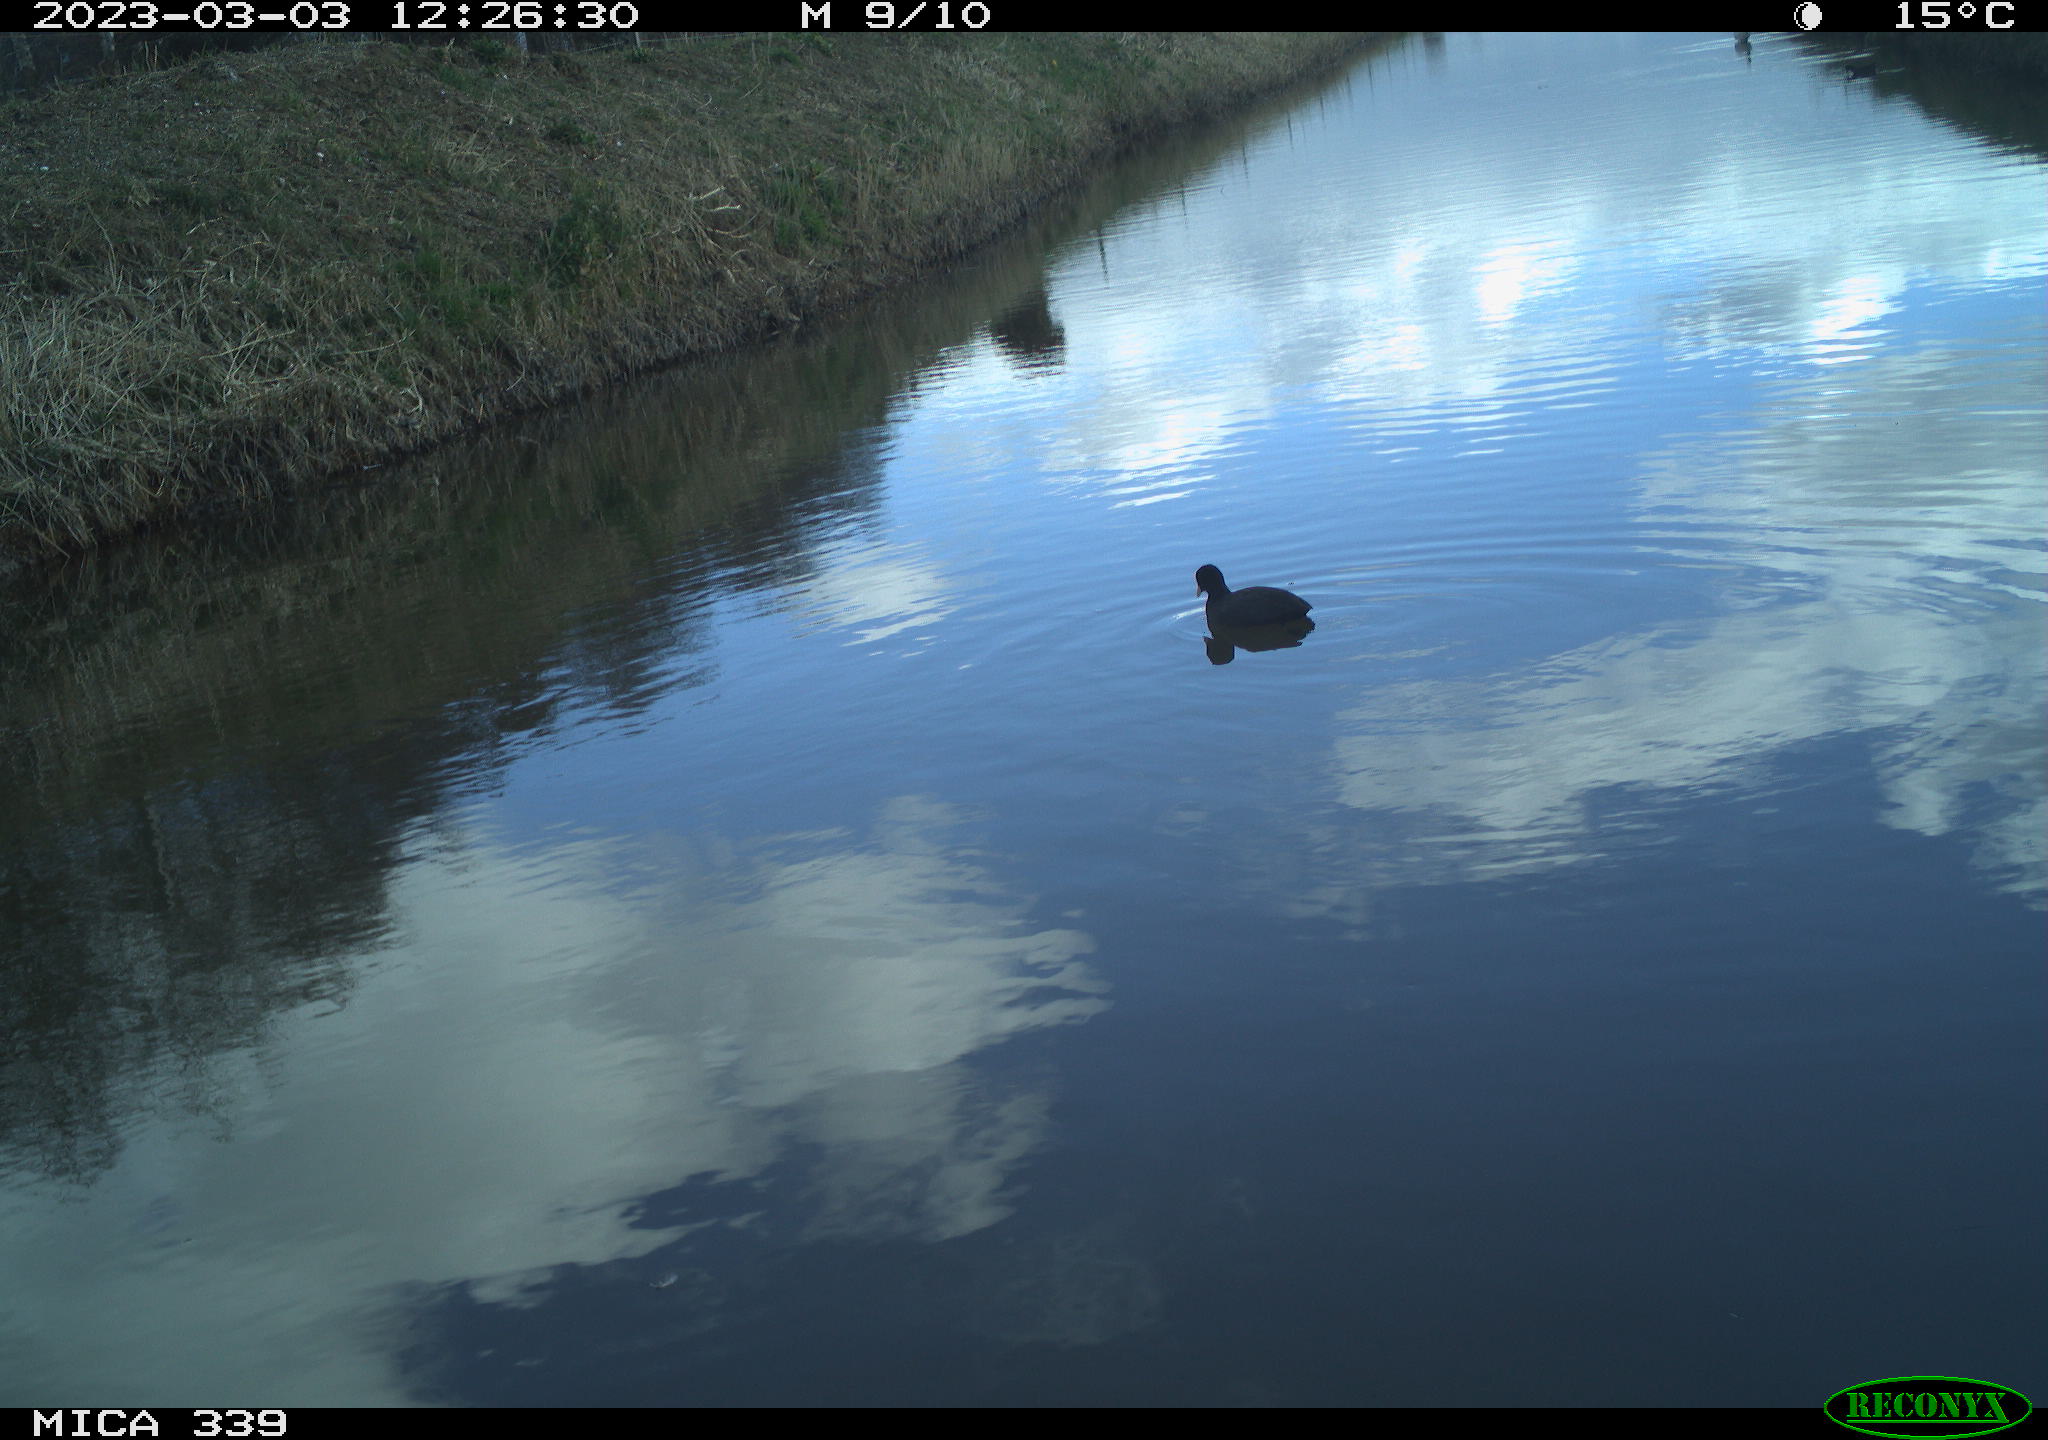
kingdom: Animalia
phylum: Chordata
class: Aves
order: Gruiformes
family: Rallidae
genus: Fulica
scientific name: Fulica atra
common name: Eurasian coot
